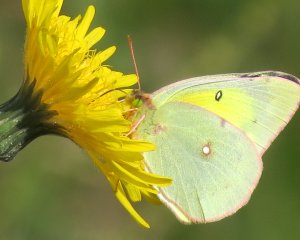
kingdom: Animalia
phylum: Arthropoda
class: Insecta
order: Lepidoptera
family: Pieridae
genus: Colias
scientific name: Colias philodice
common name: Clouded Sulphur
